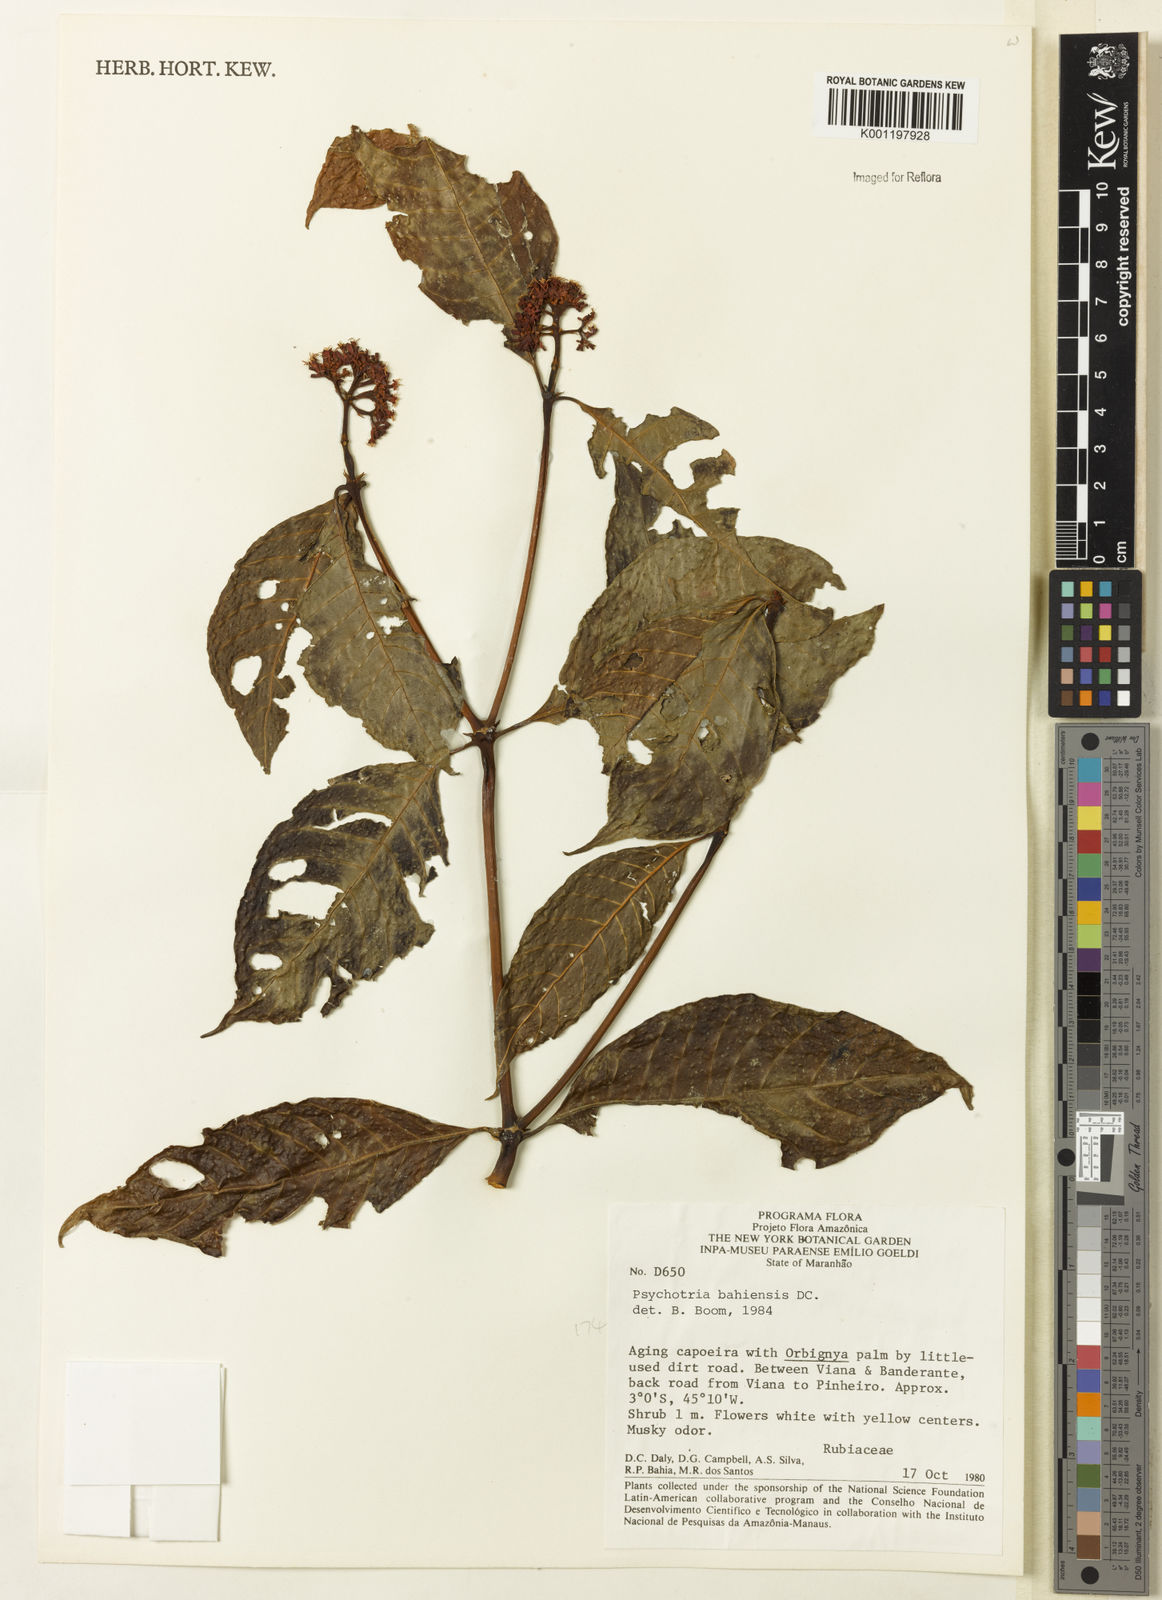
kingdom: Plantae
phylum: Tracheophyta
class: Magnoliopsida
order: Gentianales
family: Rubiaceae
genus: Psychotria
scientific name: Psychotria bahiensis
